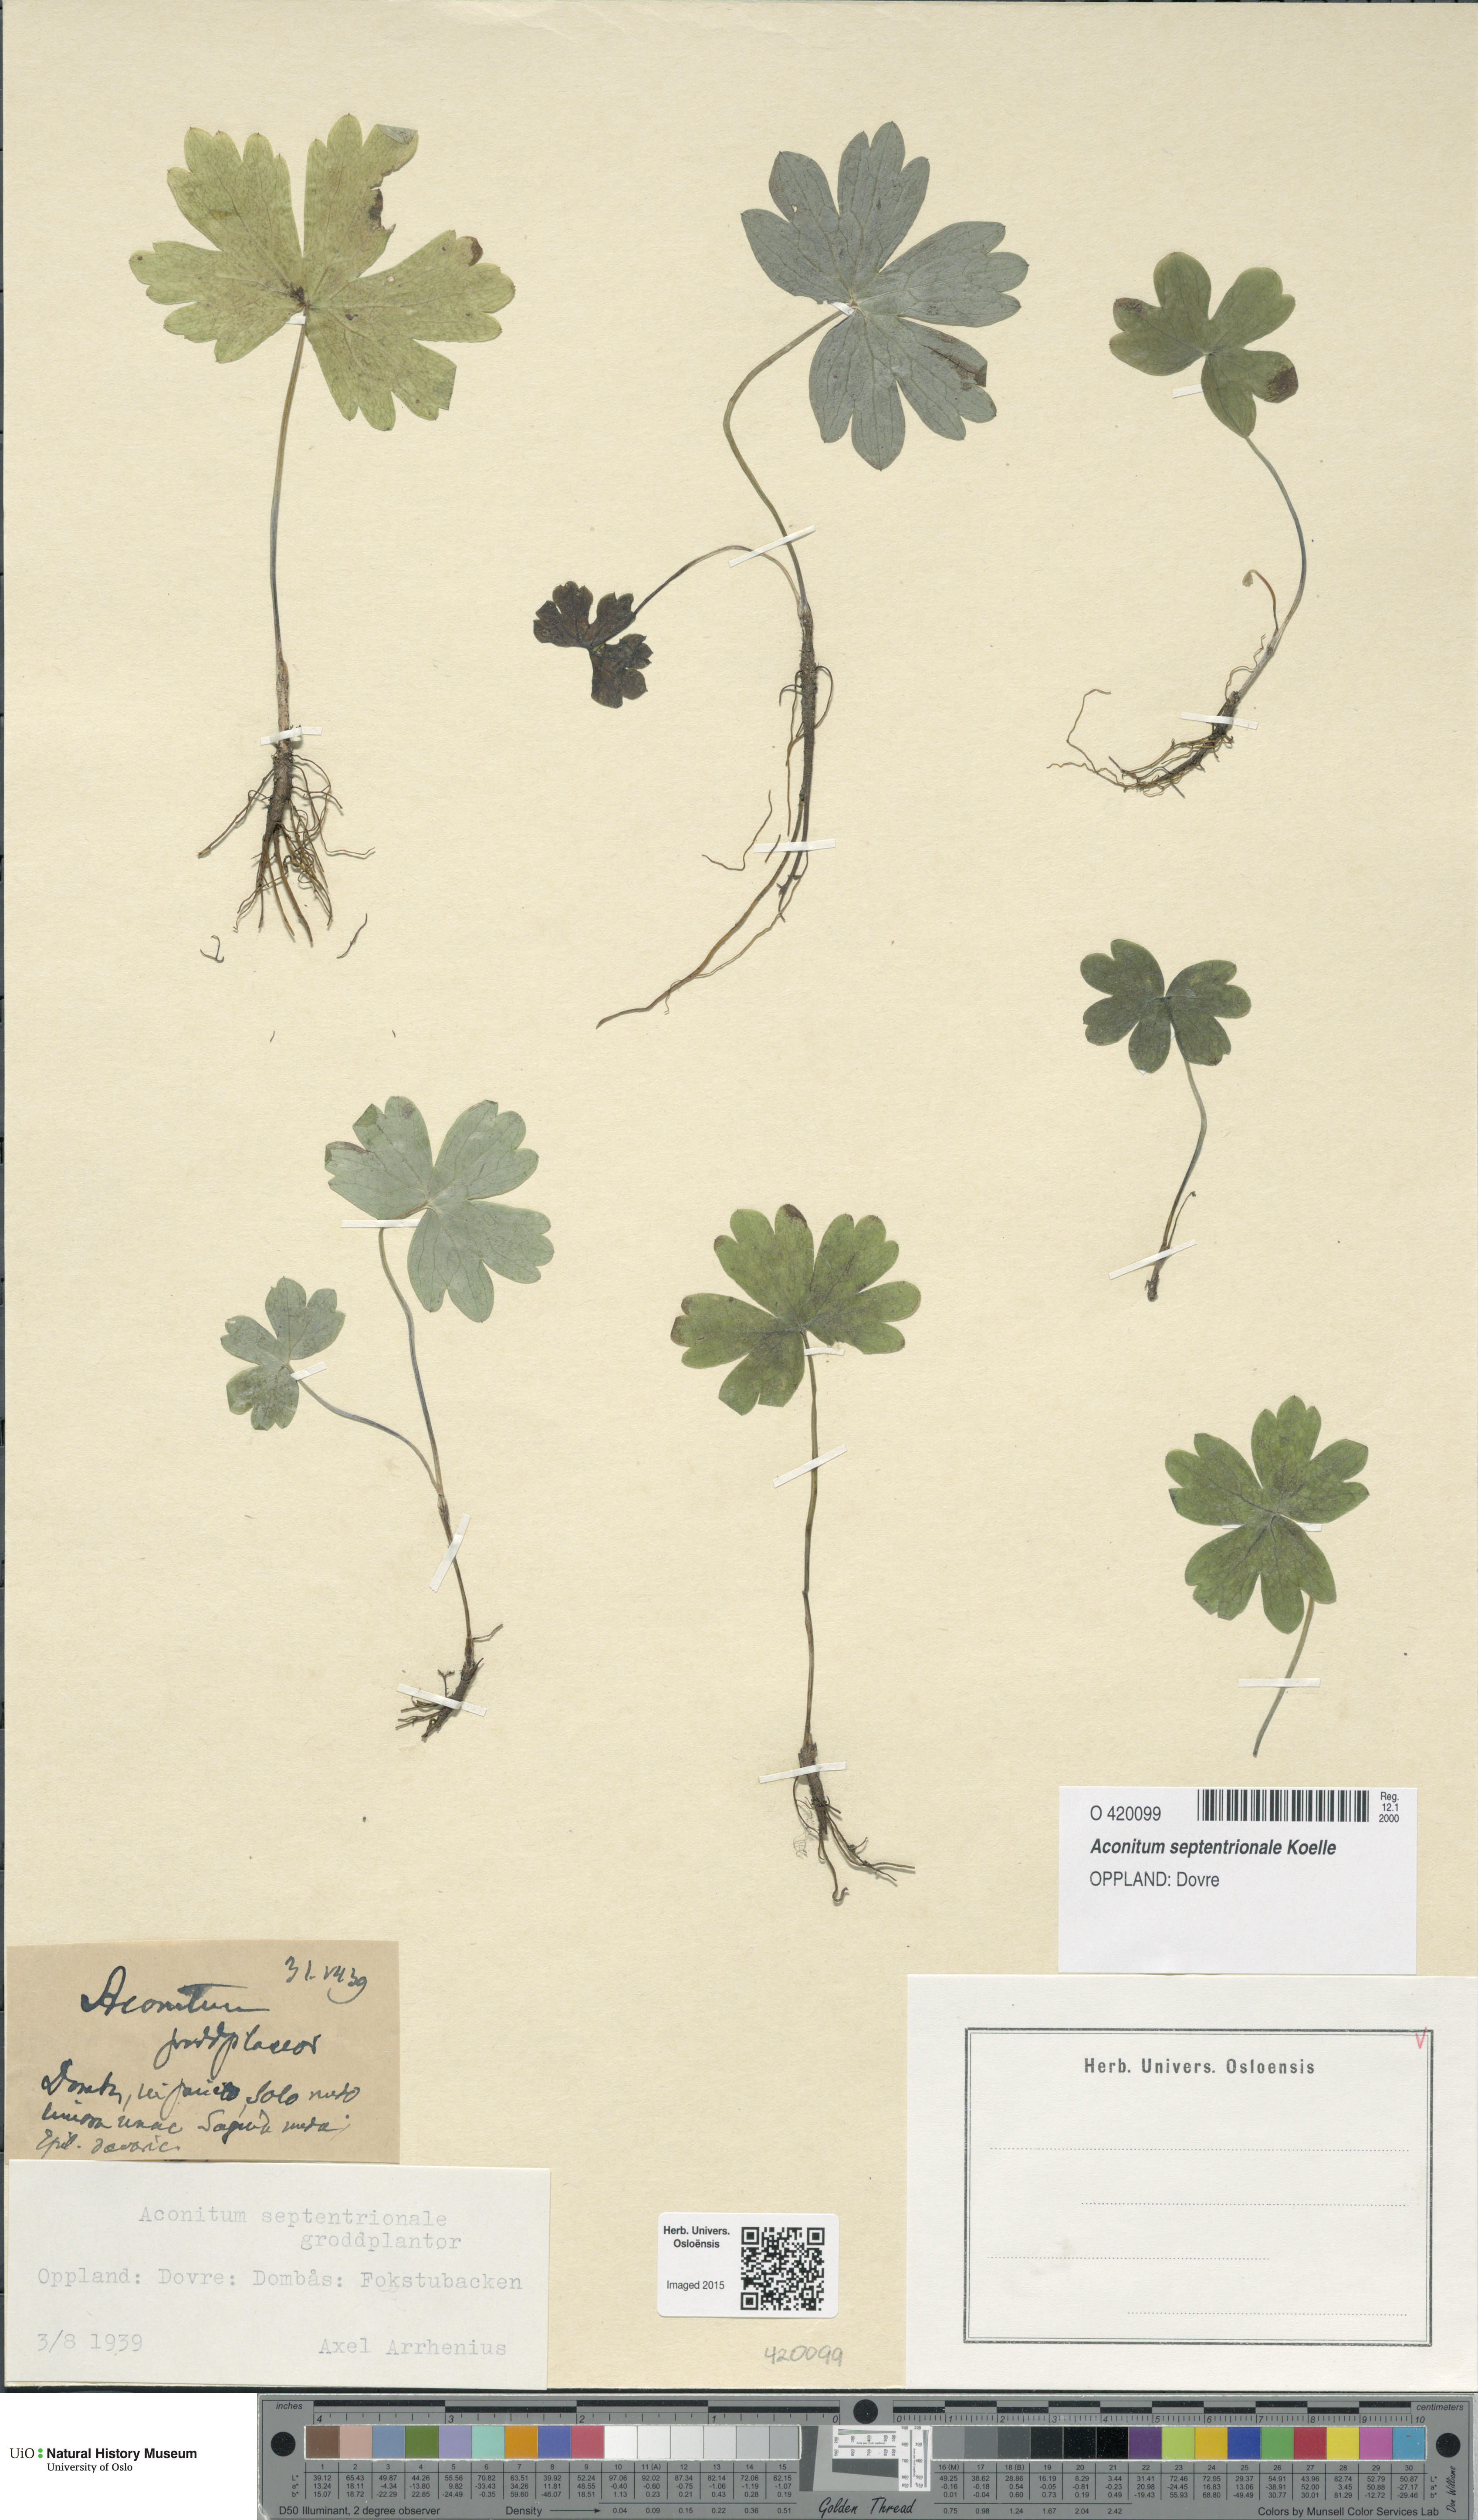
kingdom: Plantae
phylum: Tracheophyta
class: Magnoliopsida
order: Ranunculales
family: Ranunculaceae
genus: Aconitum
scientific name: Aconitum septentrionale
